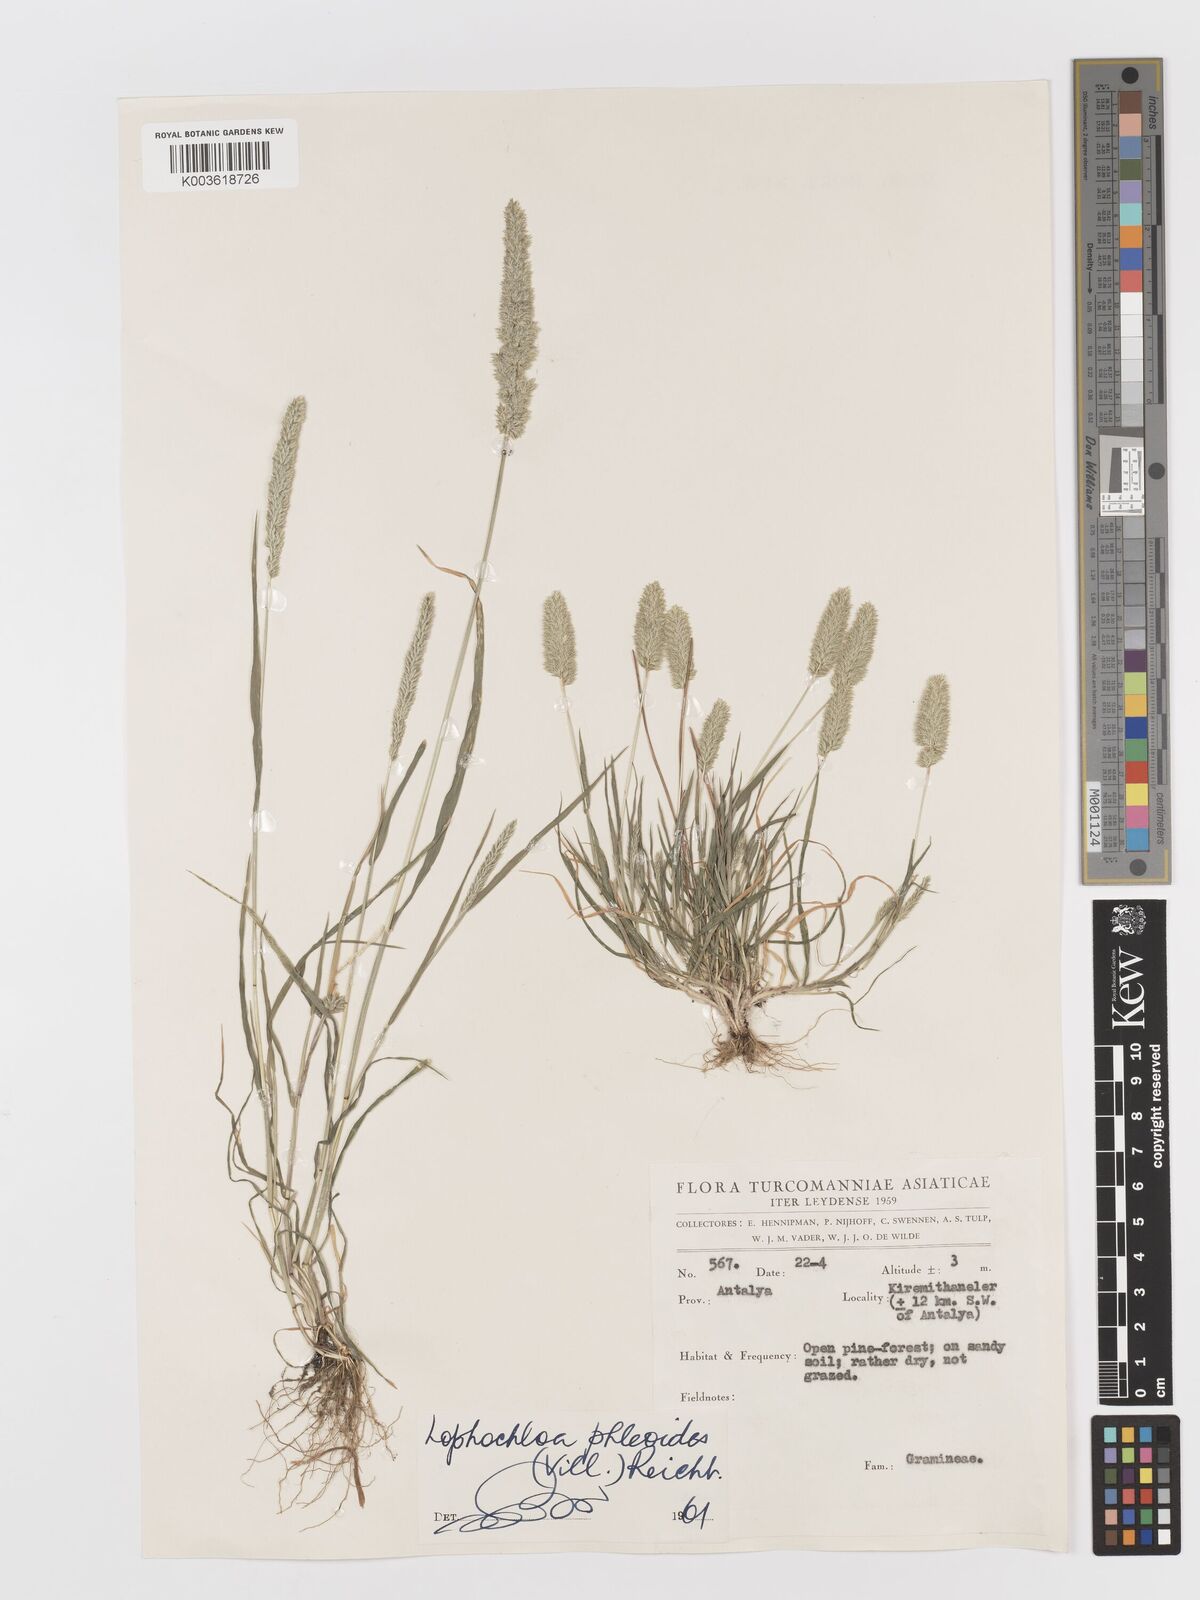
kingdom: Plantae
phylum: Tracheophyta
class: Liliopsida
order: Poales
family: Poaceae
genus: Rostraria
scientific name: Rostraria cristata
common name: Mediterranean hair-grass
